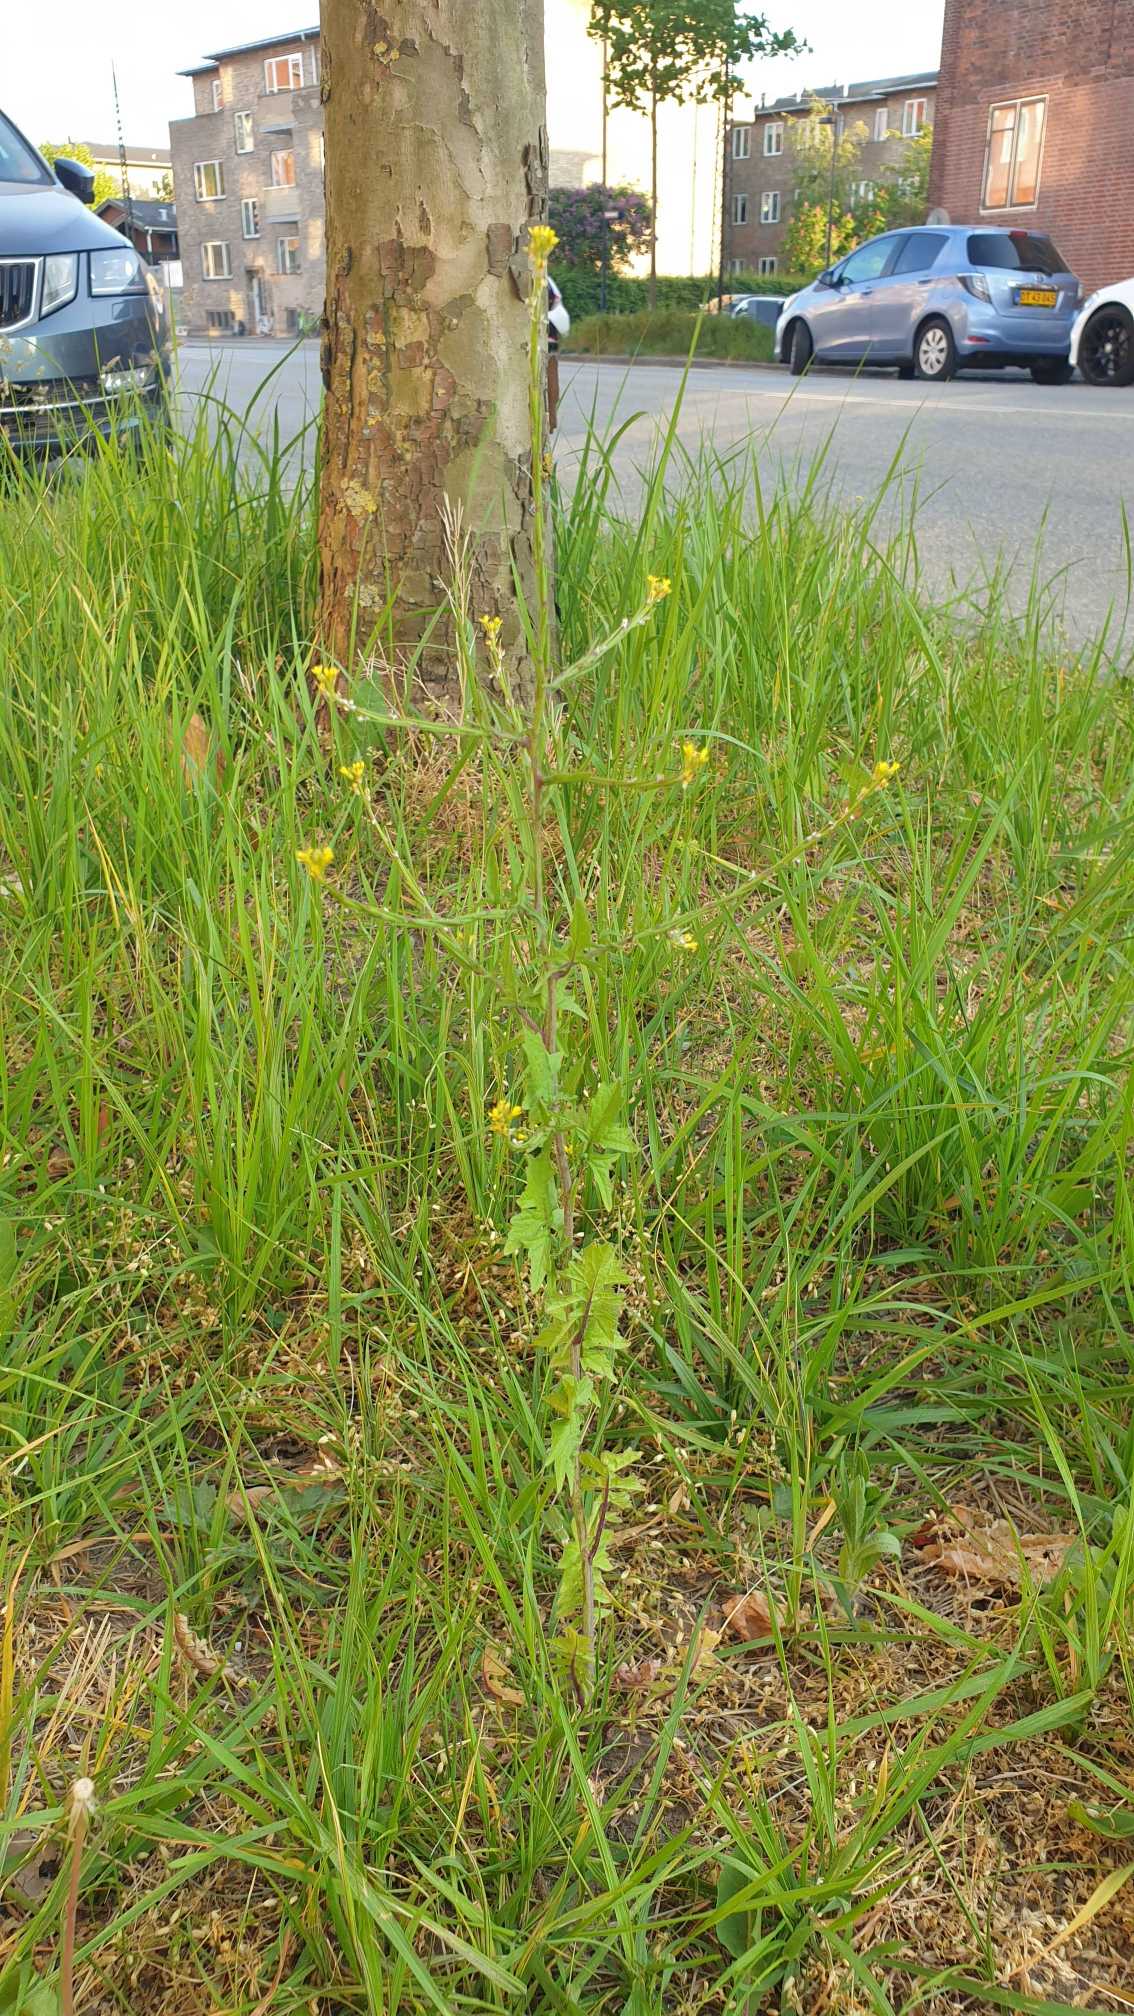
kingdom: Plantae
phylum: Tracheophyta
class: Magnoliopsida
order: Brassicales
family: Brassicaceae
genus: Sisymbrium
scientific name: Sisymbrium officinale
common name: Rank vejsennep
